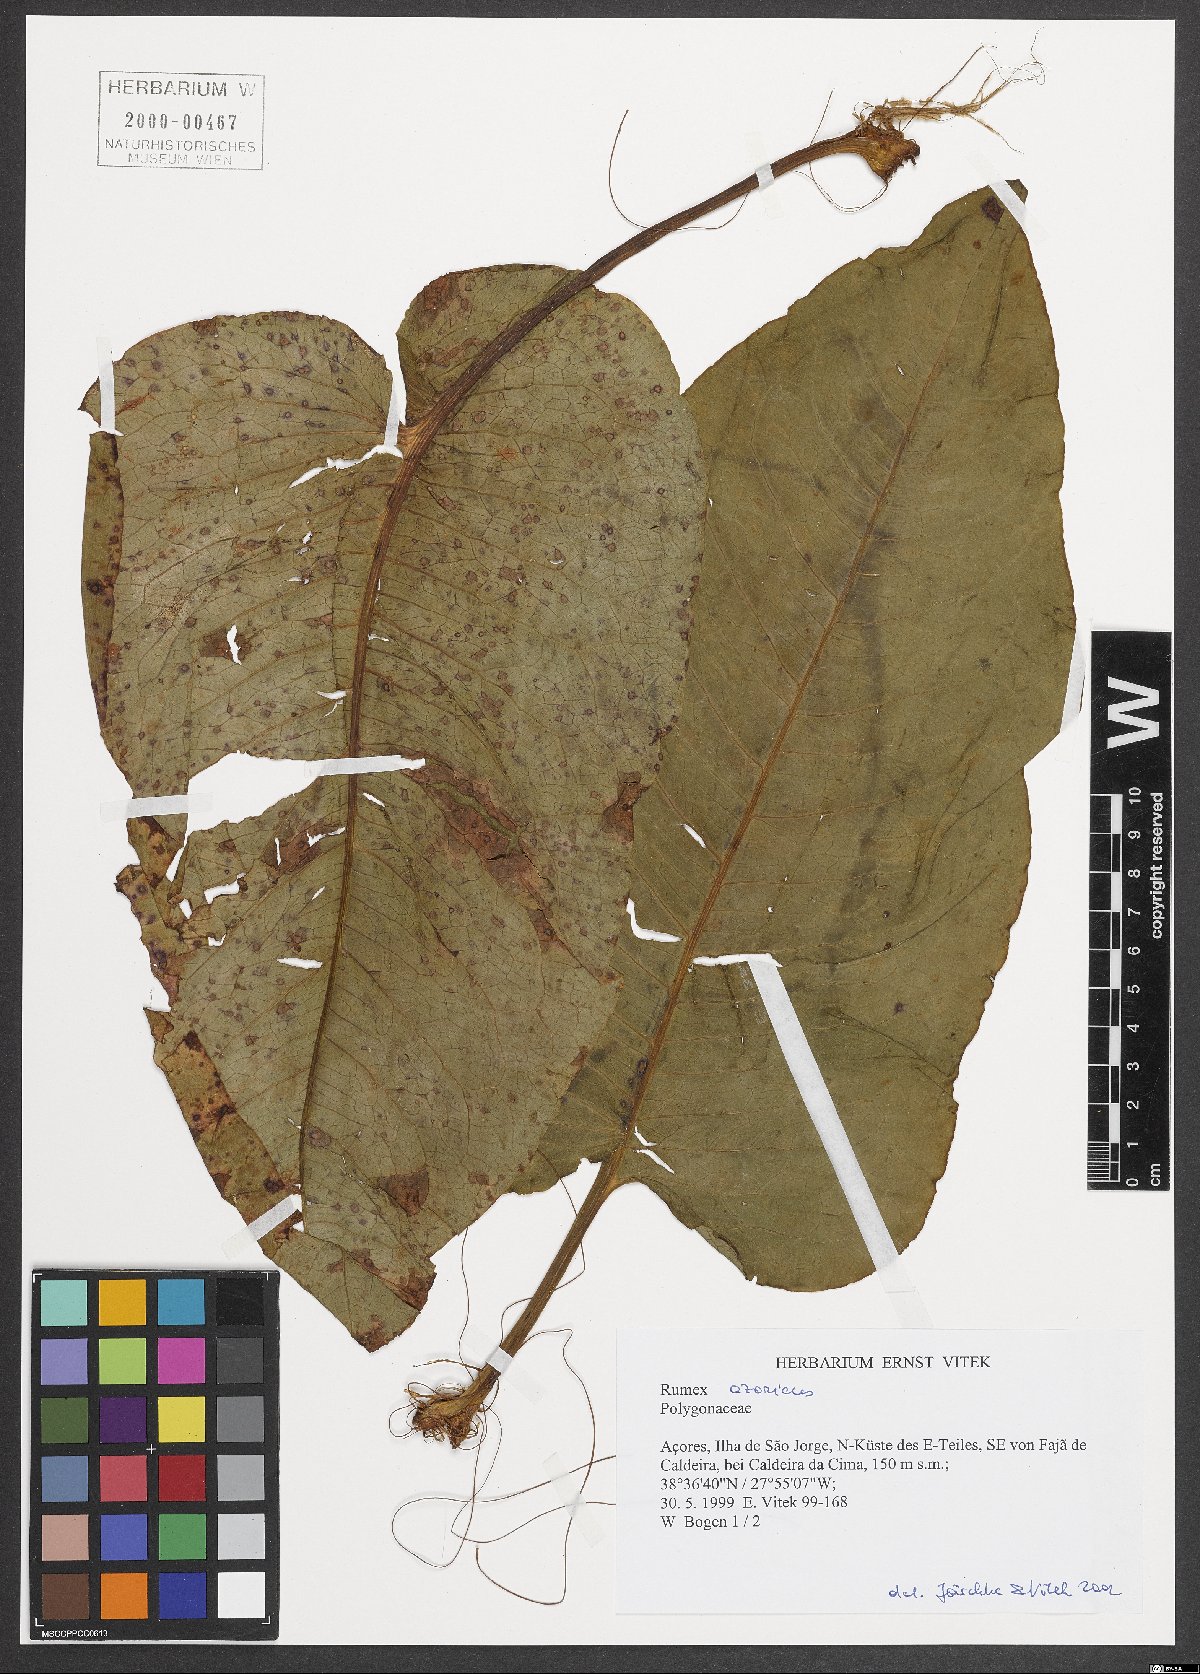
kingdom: Plantae
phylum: Tracheophyta
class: Magnoliopsida
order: Caryophyllales
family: Polygonaceae
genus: Rumex
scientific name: Rumex azoricus
